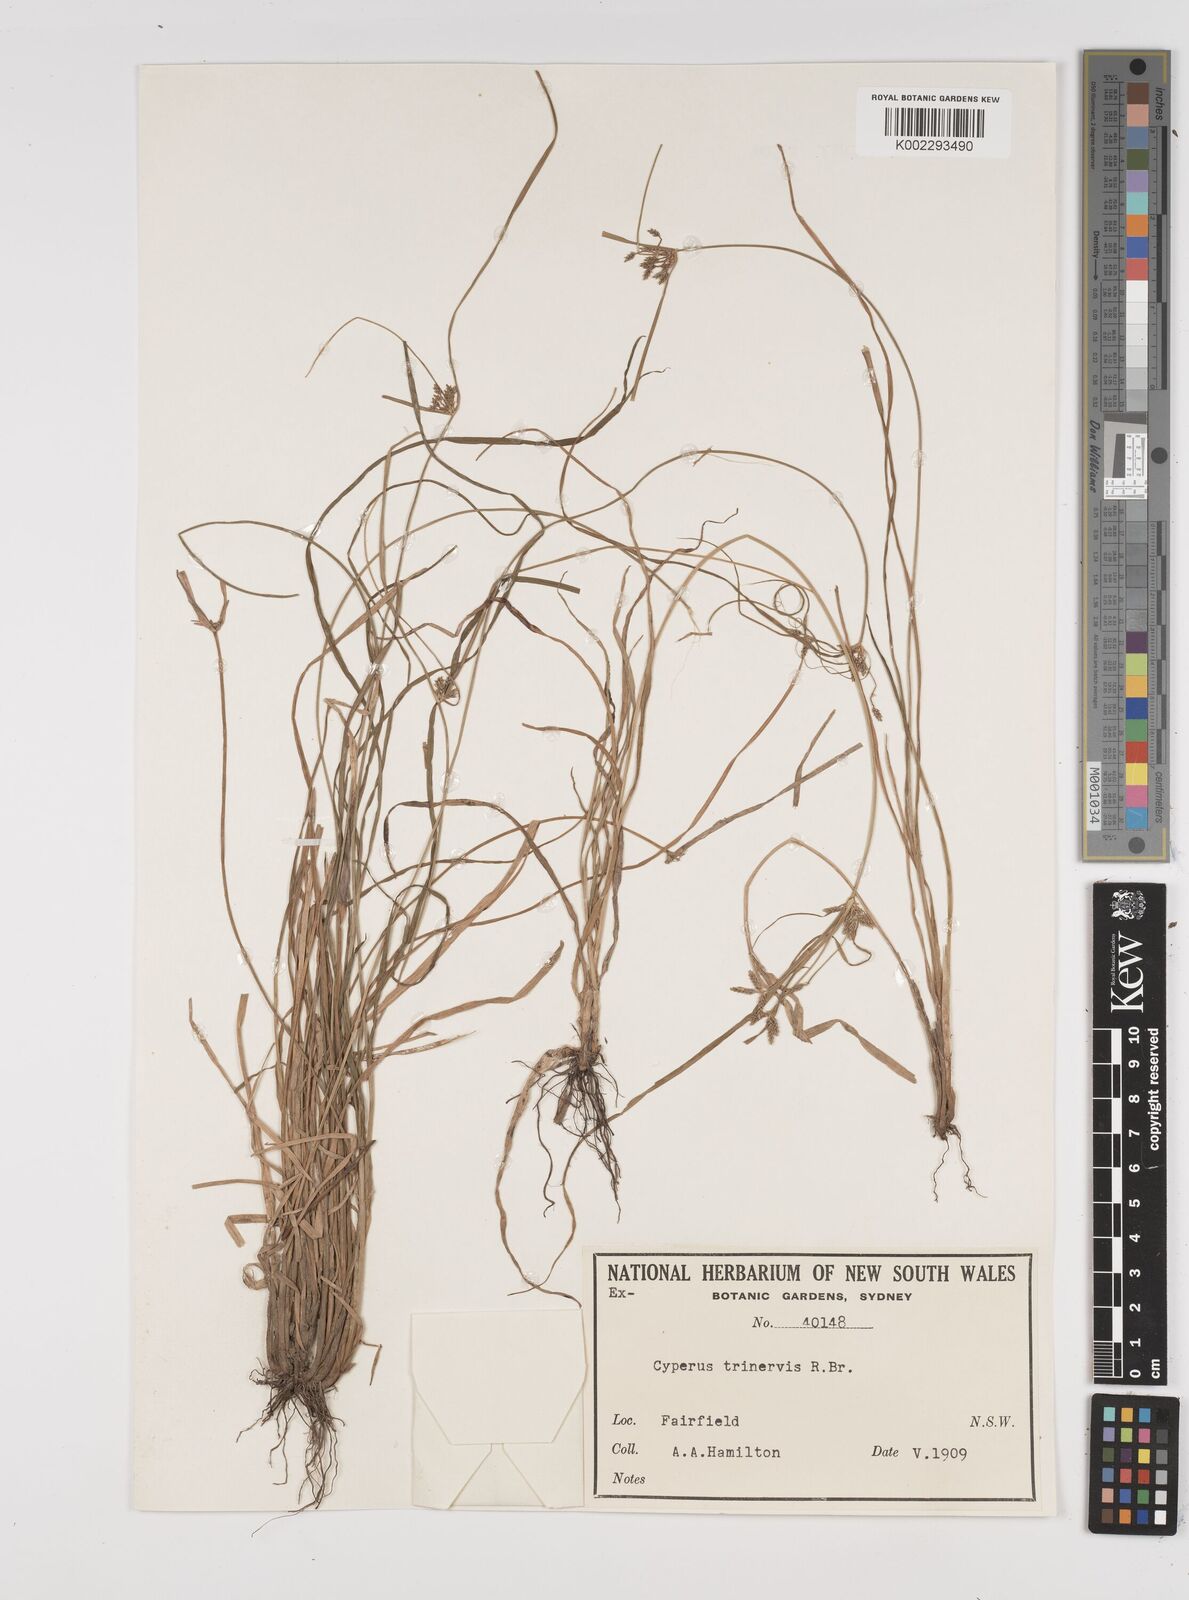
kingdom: Plantae
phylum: Tracheophyta
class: Liliopsida
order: Poales
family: Cyperaceae
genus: Cyperus
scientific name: Cyperus trinervis
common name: Australian flatsedge
